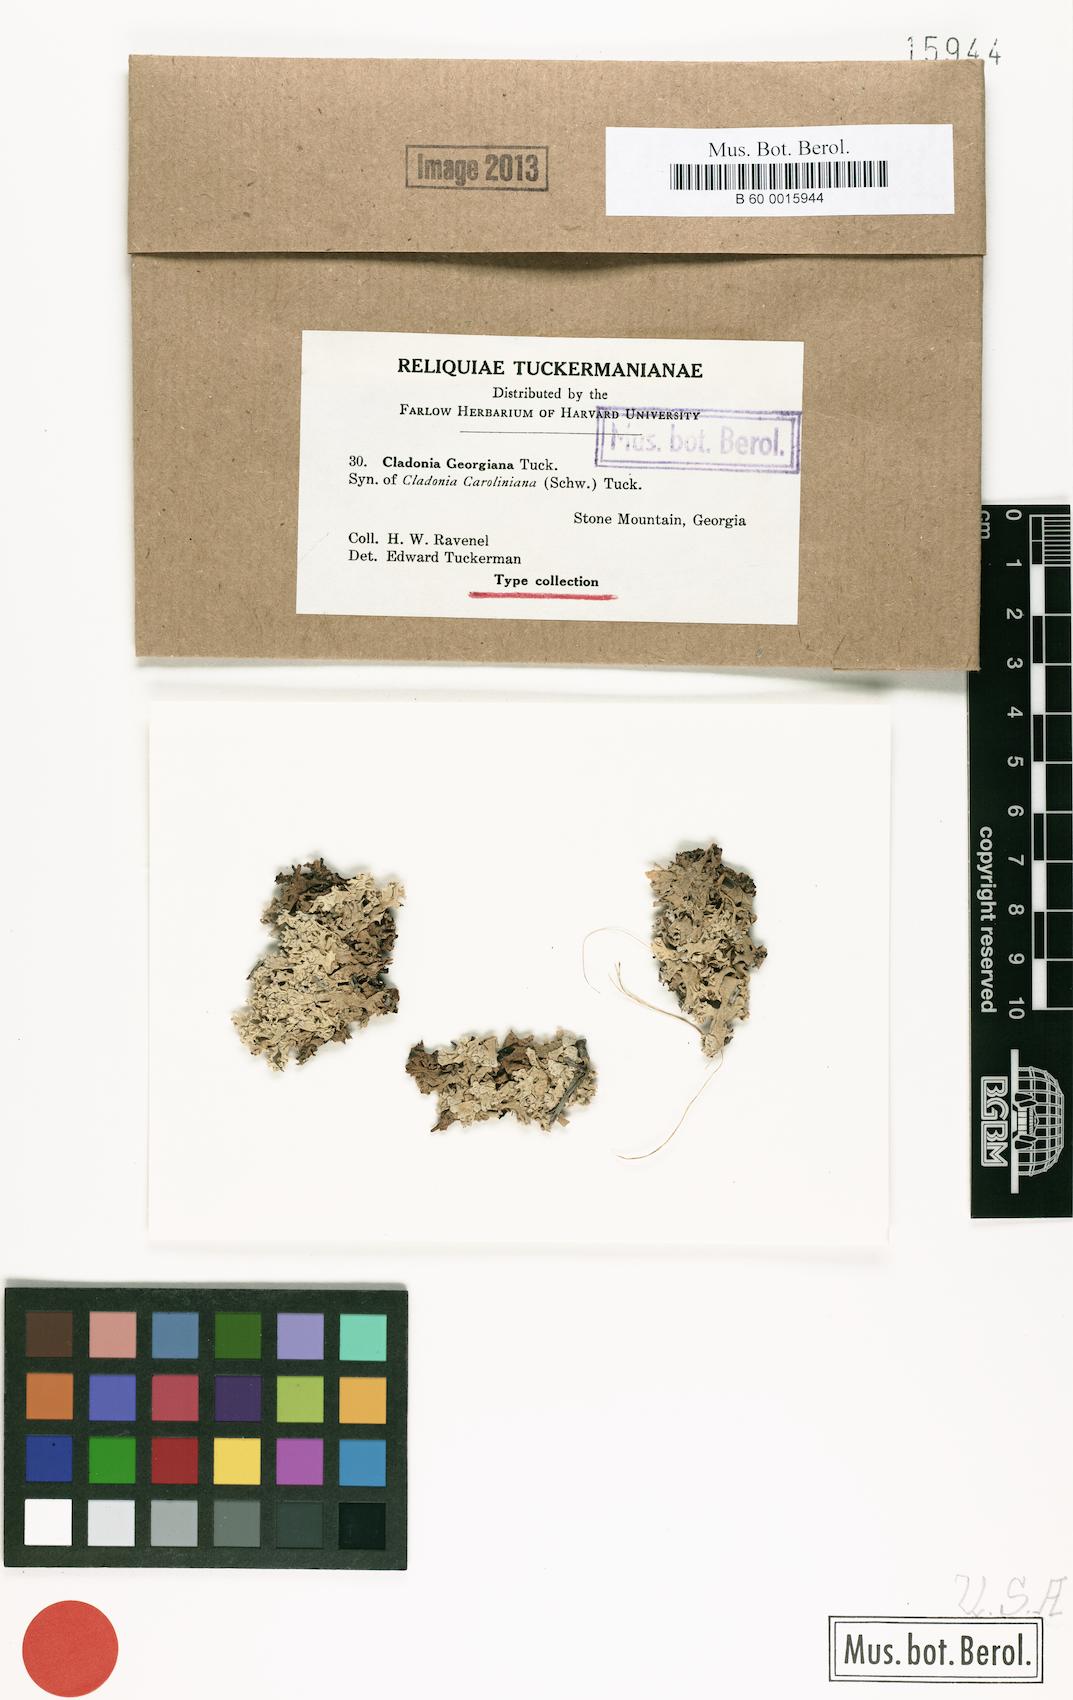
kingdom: Fungi
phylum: Ascomycota
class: Lecanoromycetes
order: Lecanorales
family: Cladoniaceae
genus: Cladonia
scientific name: Cladonia caroliniana
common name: Granite thorn
